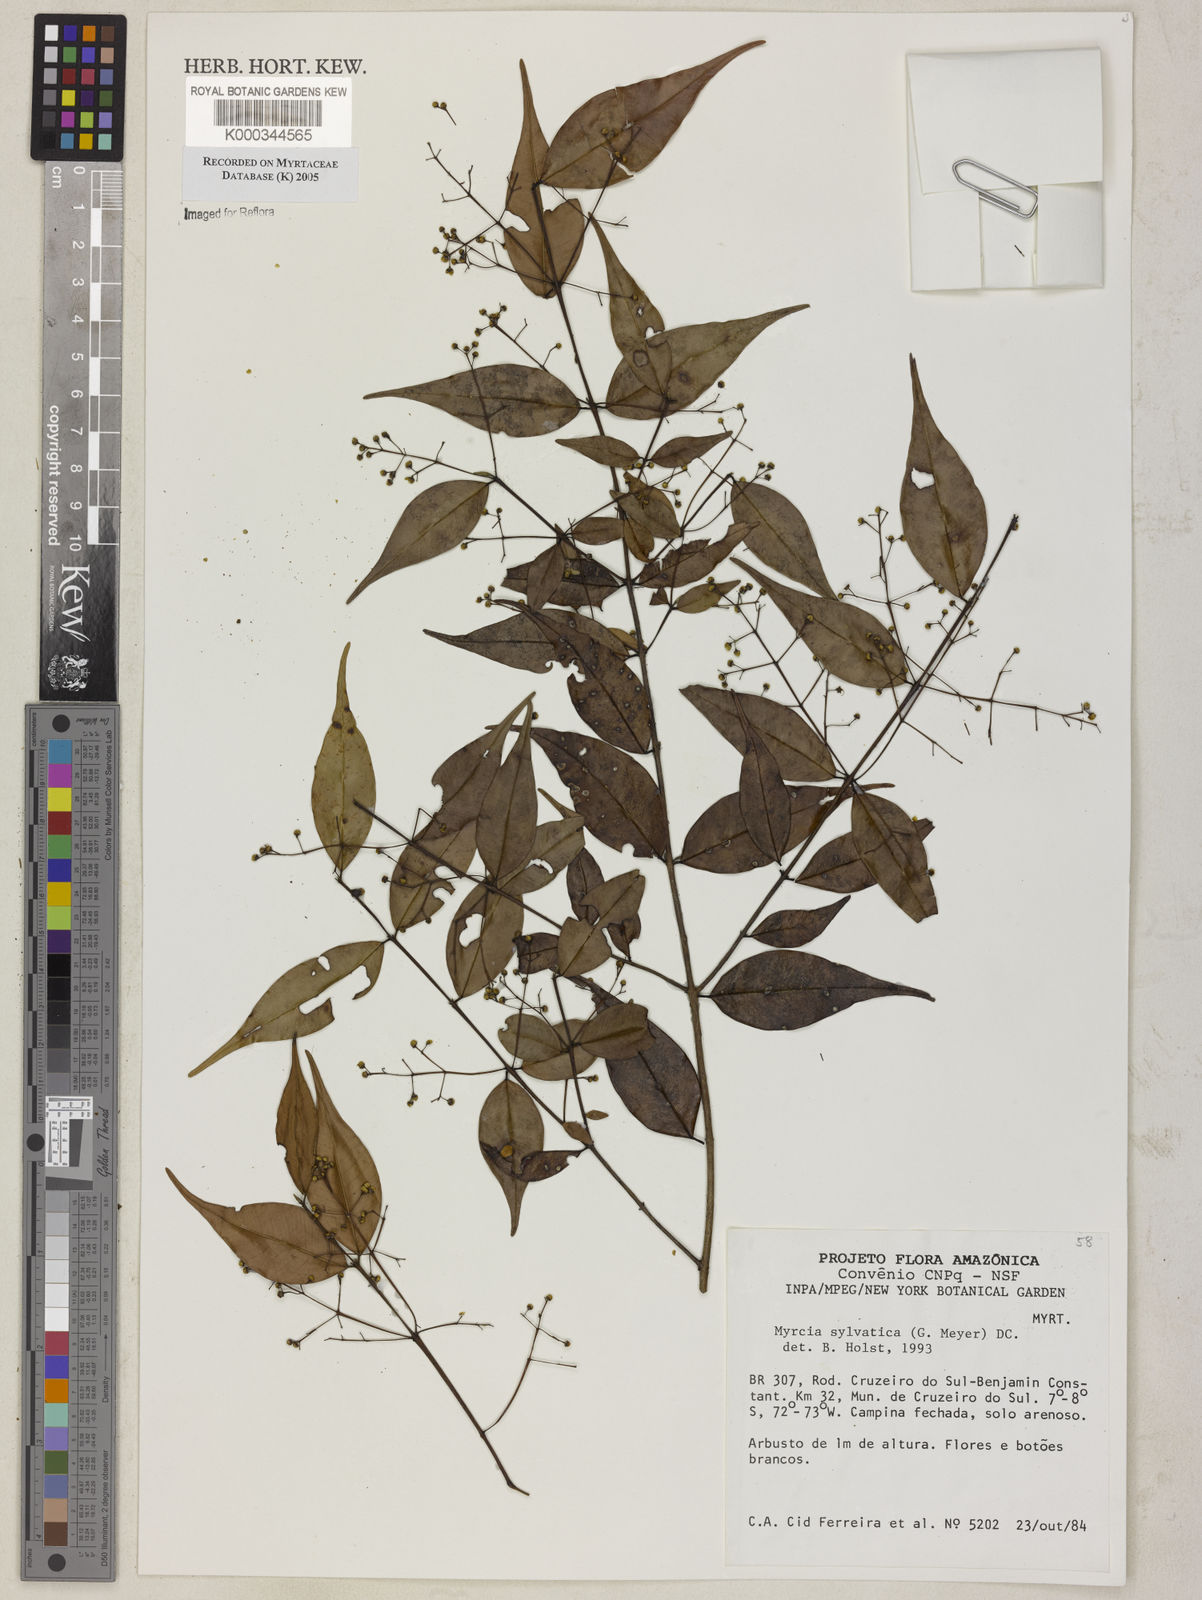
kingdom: Plantae
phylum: Tracheophyta
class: Magnoliopsida
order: Myrtales
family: Myrtaceae
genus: Myrcia
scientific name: Myrcia sylvatica
